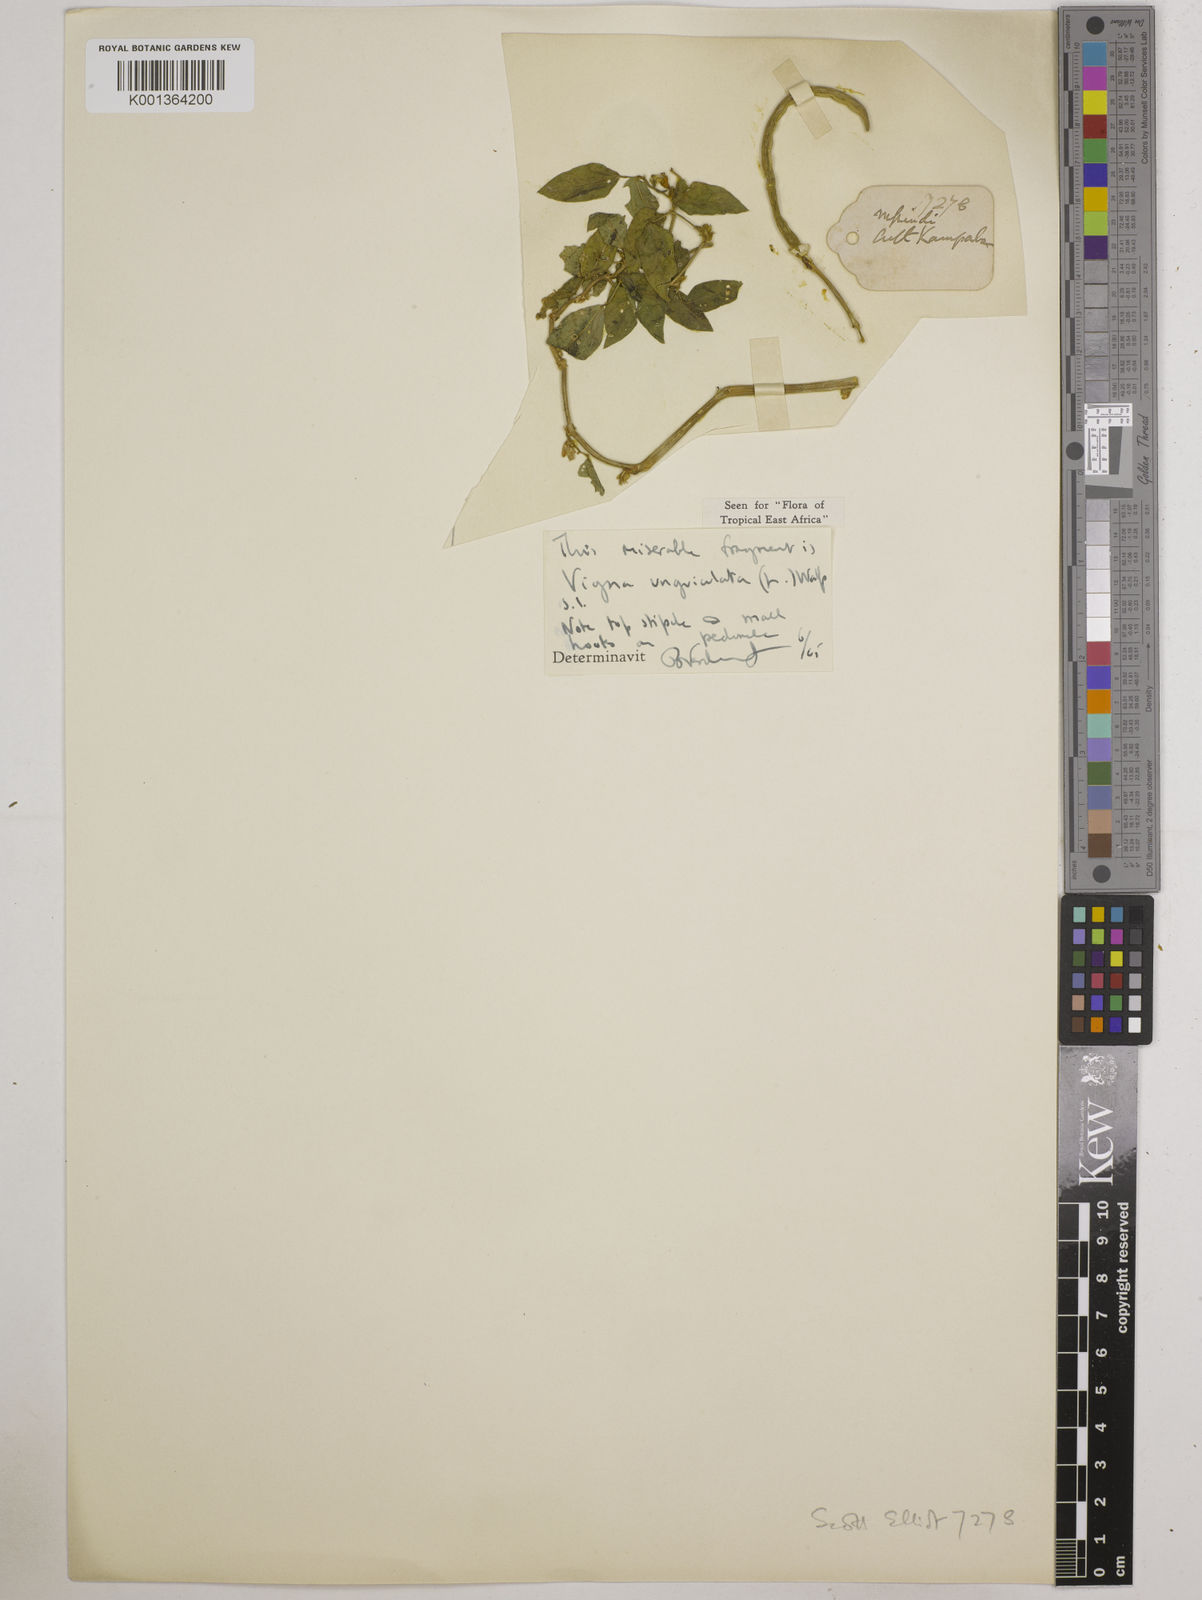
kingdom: Plantae
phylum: Tracheophyta
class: Magnoliopsida
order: Fabales
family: Fabaceae
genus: Vigna
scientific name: Vigna
